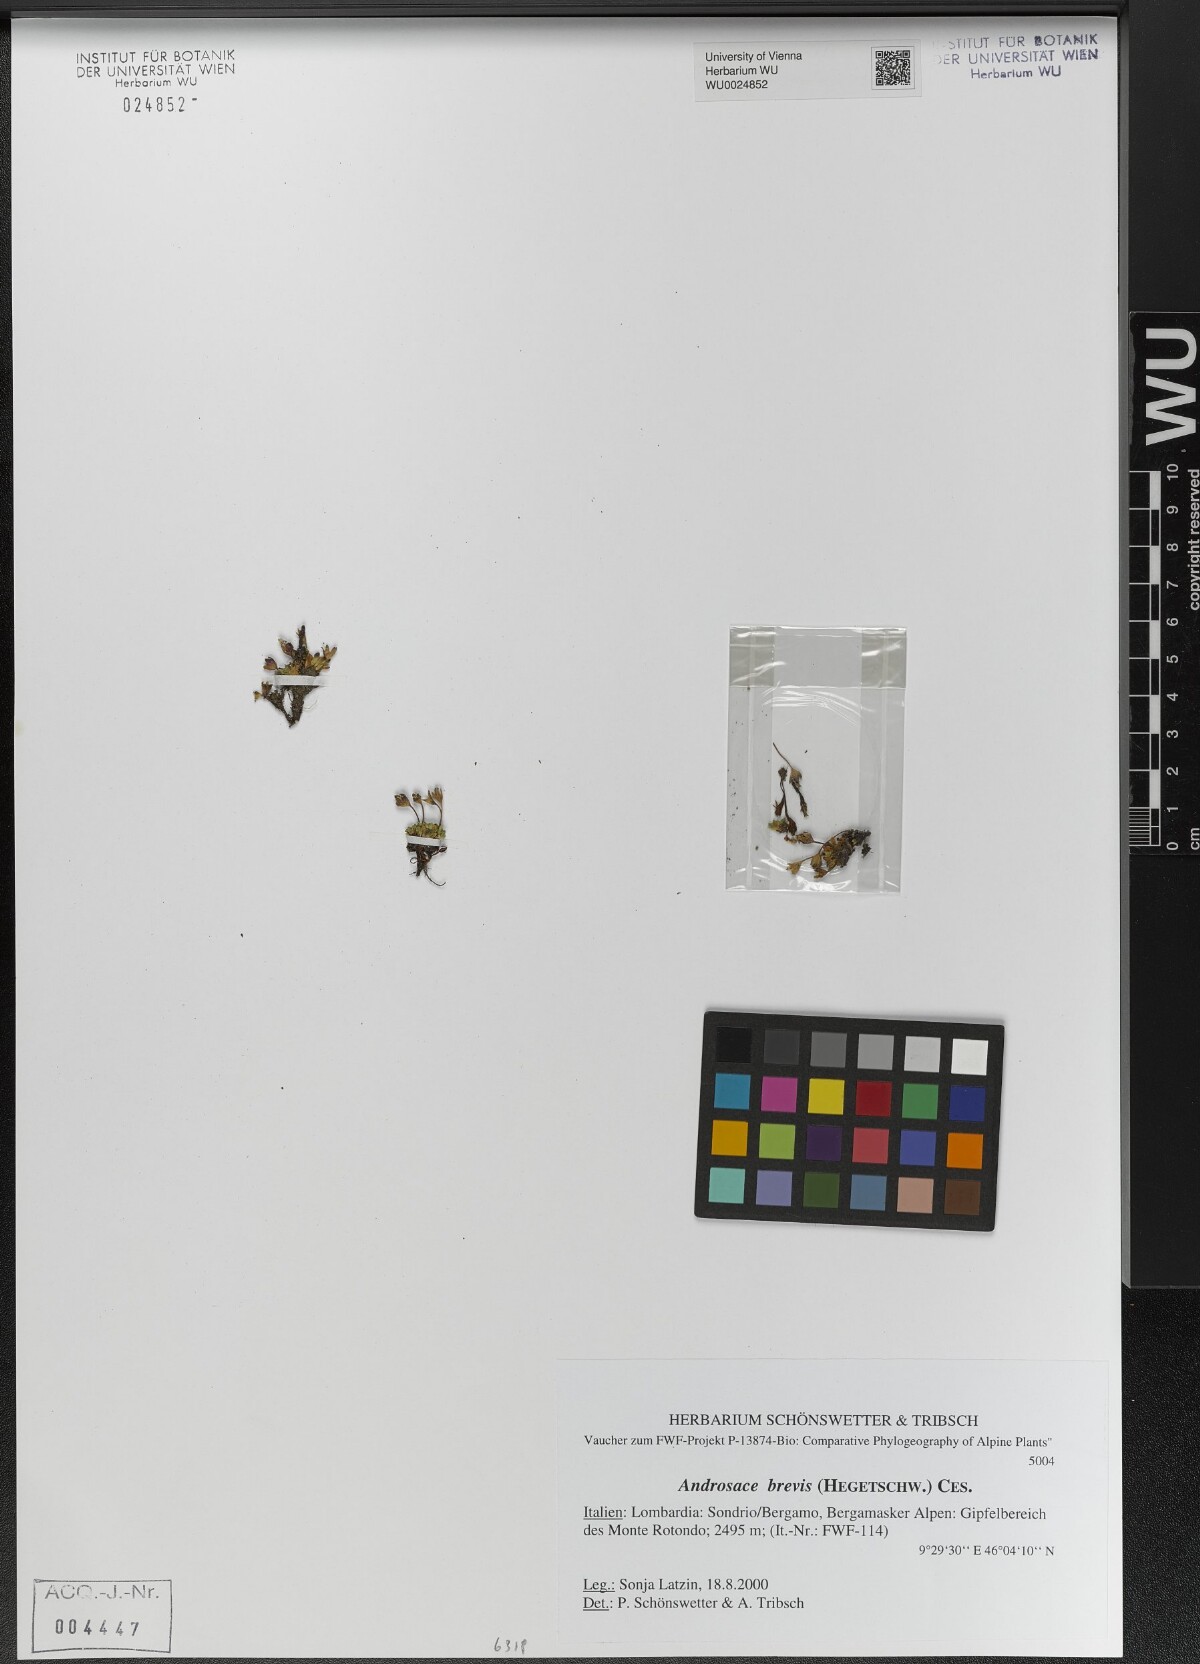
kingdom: Plantae
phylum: Tracheophyta
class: Magnoliopsida
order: Ericales
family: Primulaceae
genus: Androsace
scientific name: Androsace brevis
